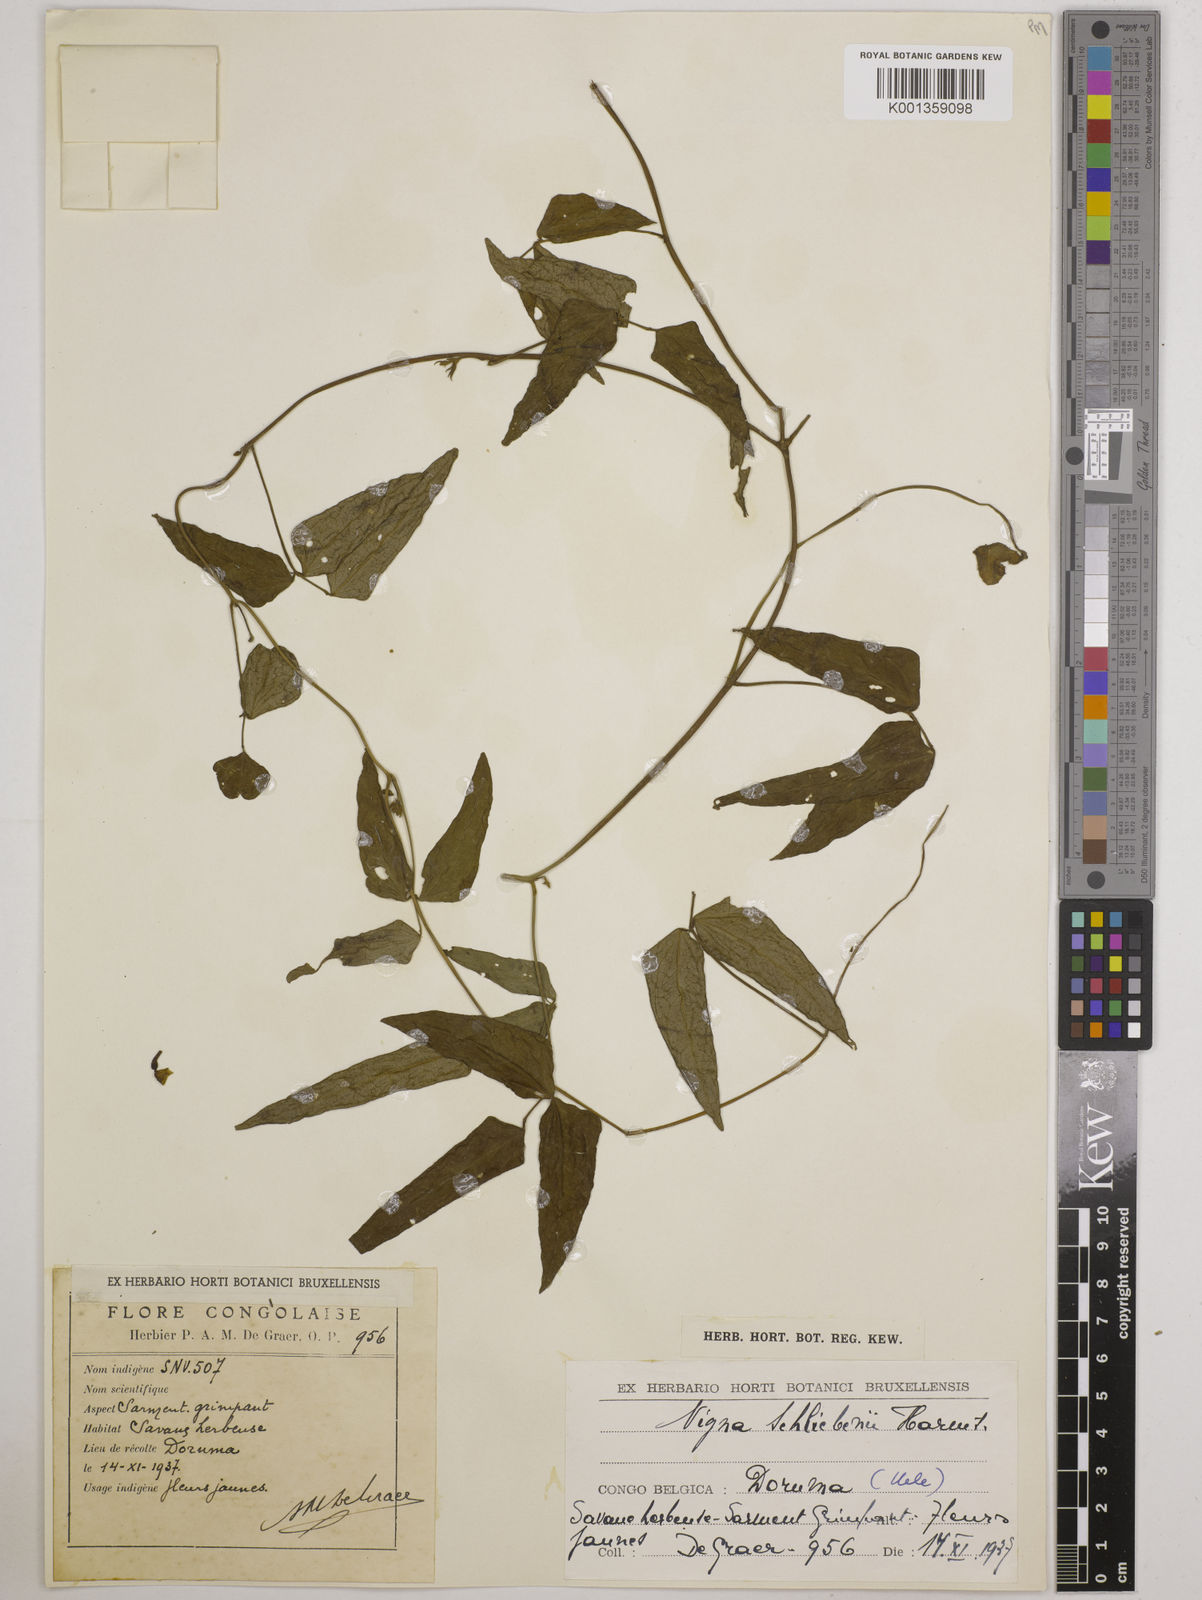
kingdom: Plantae
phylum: Tracheophyta
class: Magnoliopsida
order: Fabales
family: Fabaceae
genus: Vigna
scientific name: Vigna kirkii
